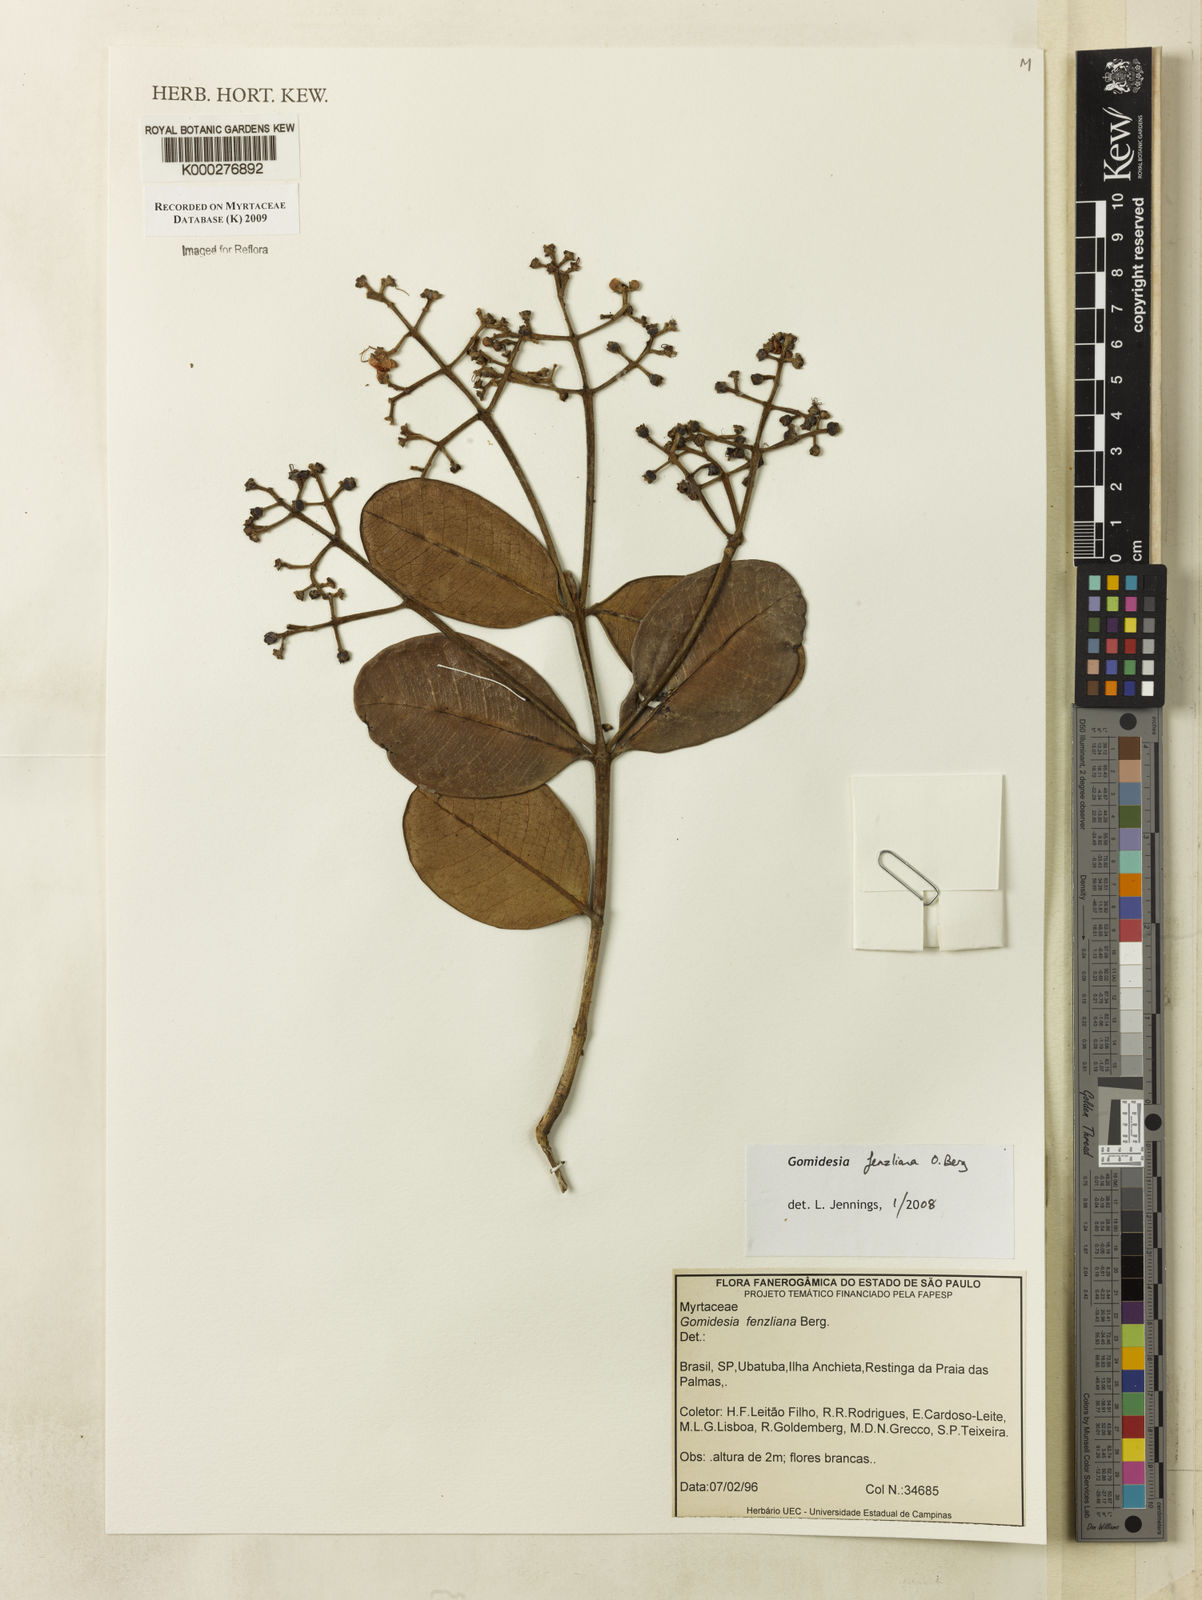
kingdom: Plantae
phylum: Tracheophyta
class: Magnoliopsida
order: Myrtales
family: Myrtaceae
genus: Myrcia
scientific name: Myrcia ilheosensis
